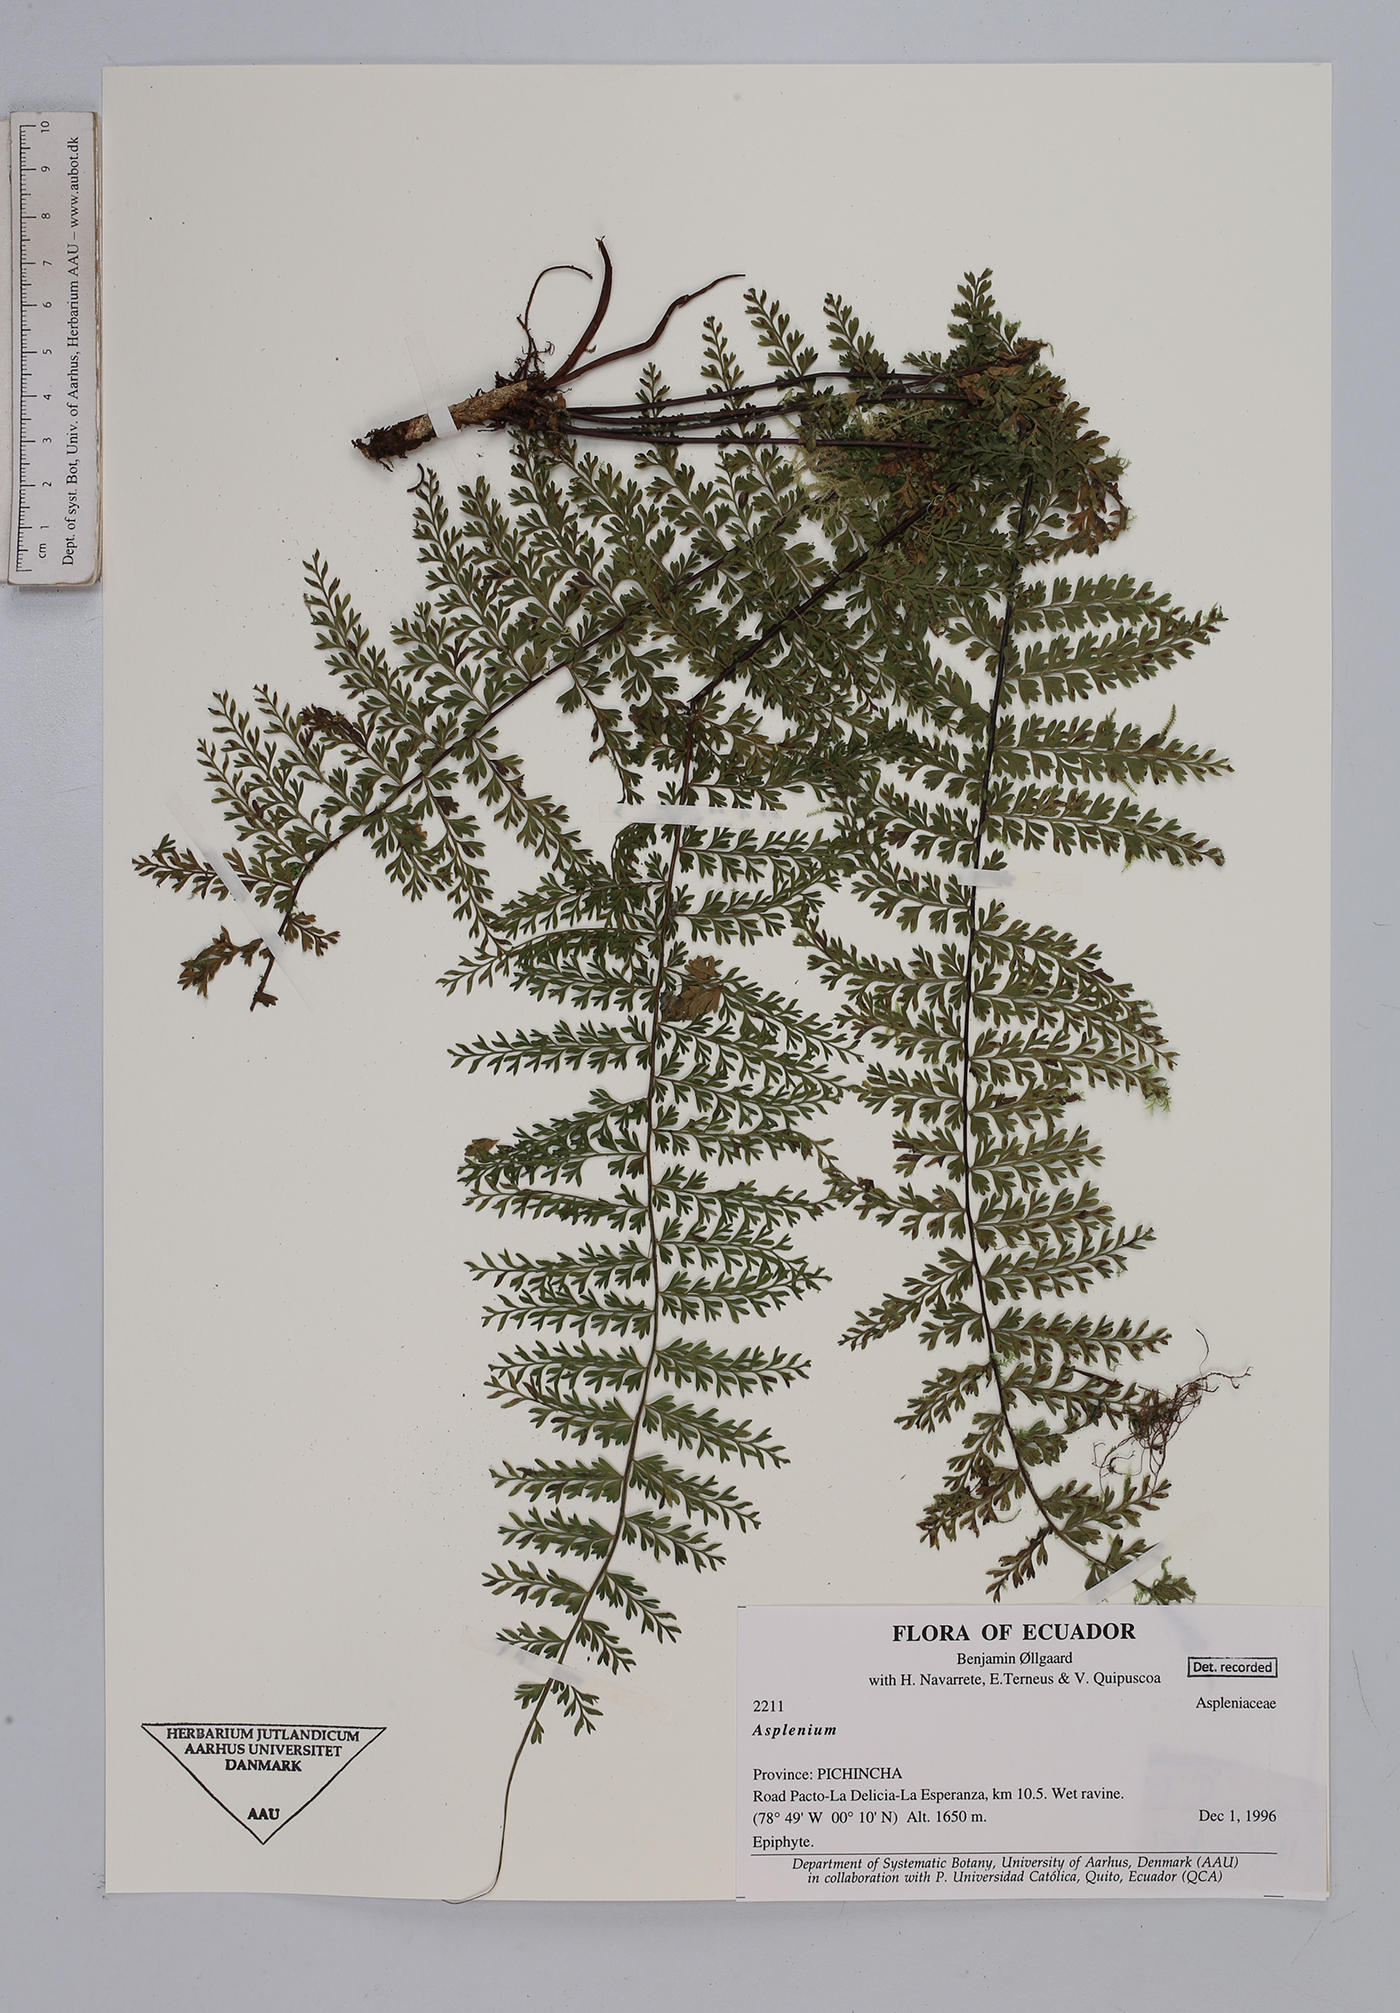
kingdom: Plantae
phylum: Tracheophyta
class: Polypodiopsida
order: Polypodiales
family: Aspleniaceae
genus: Asplenium
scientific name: Asplenium
